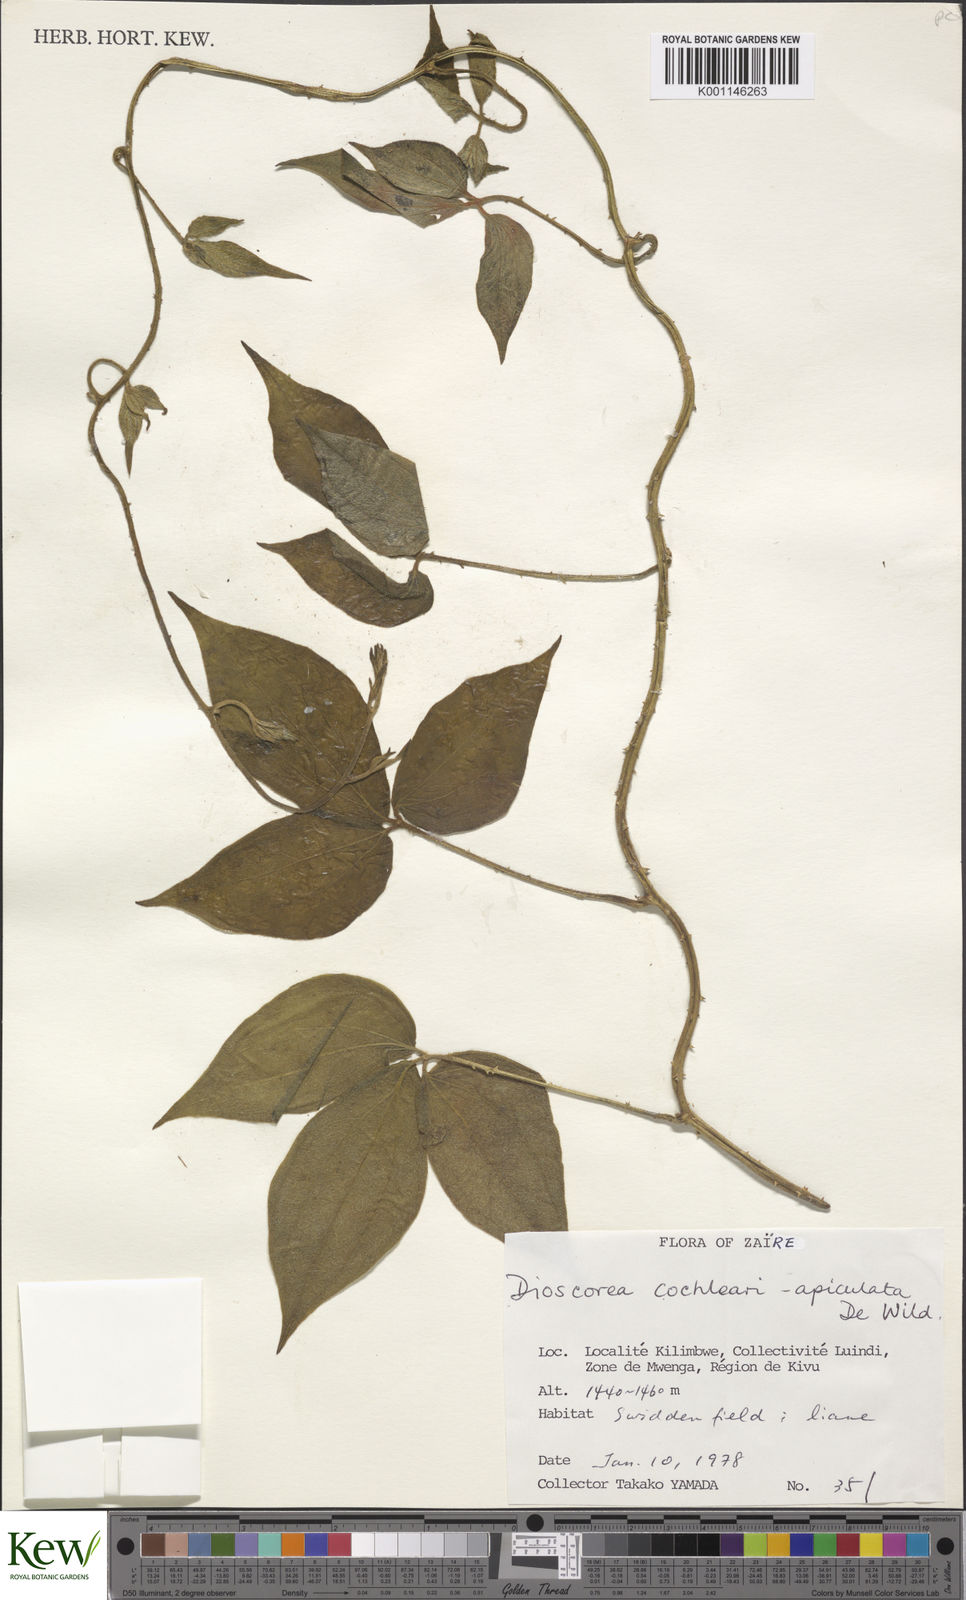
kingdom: Plantae
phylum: Tracheophyta
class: Liliopsida
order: Dioscoreales
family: Dioscoreaceae
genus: Dioscorea
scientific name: Dioscorea cochleariapiculata
